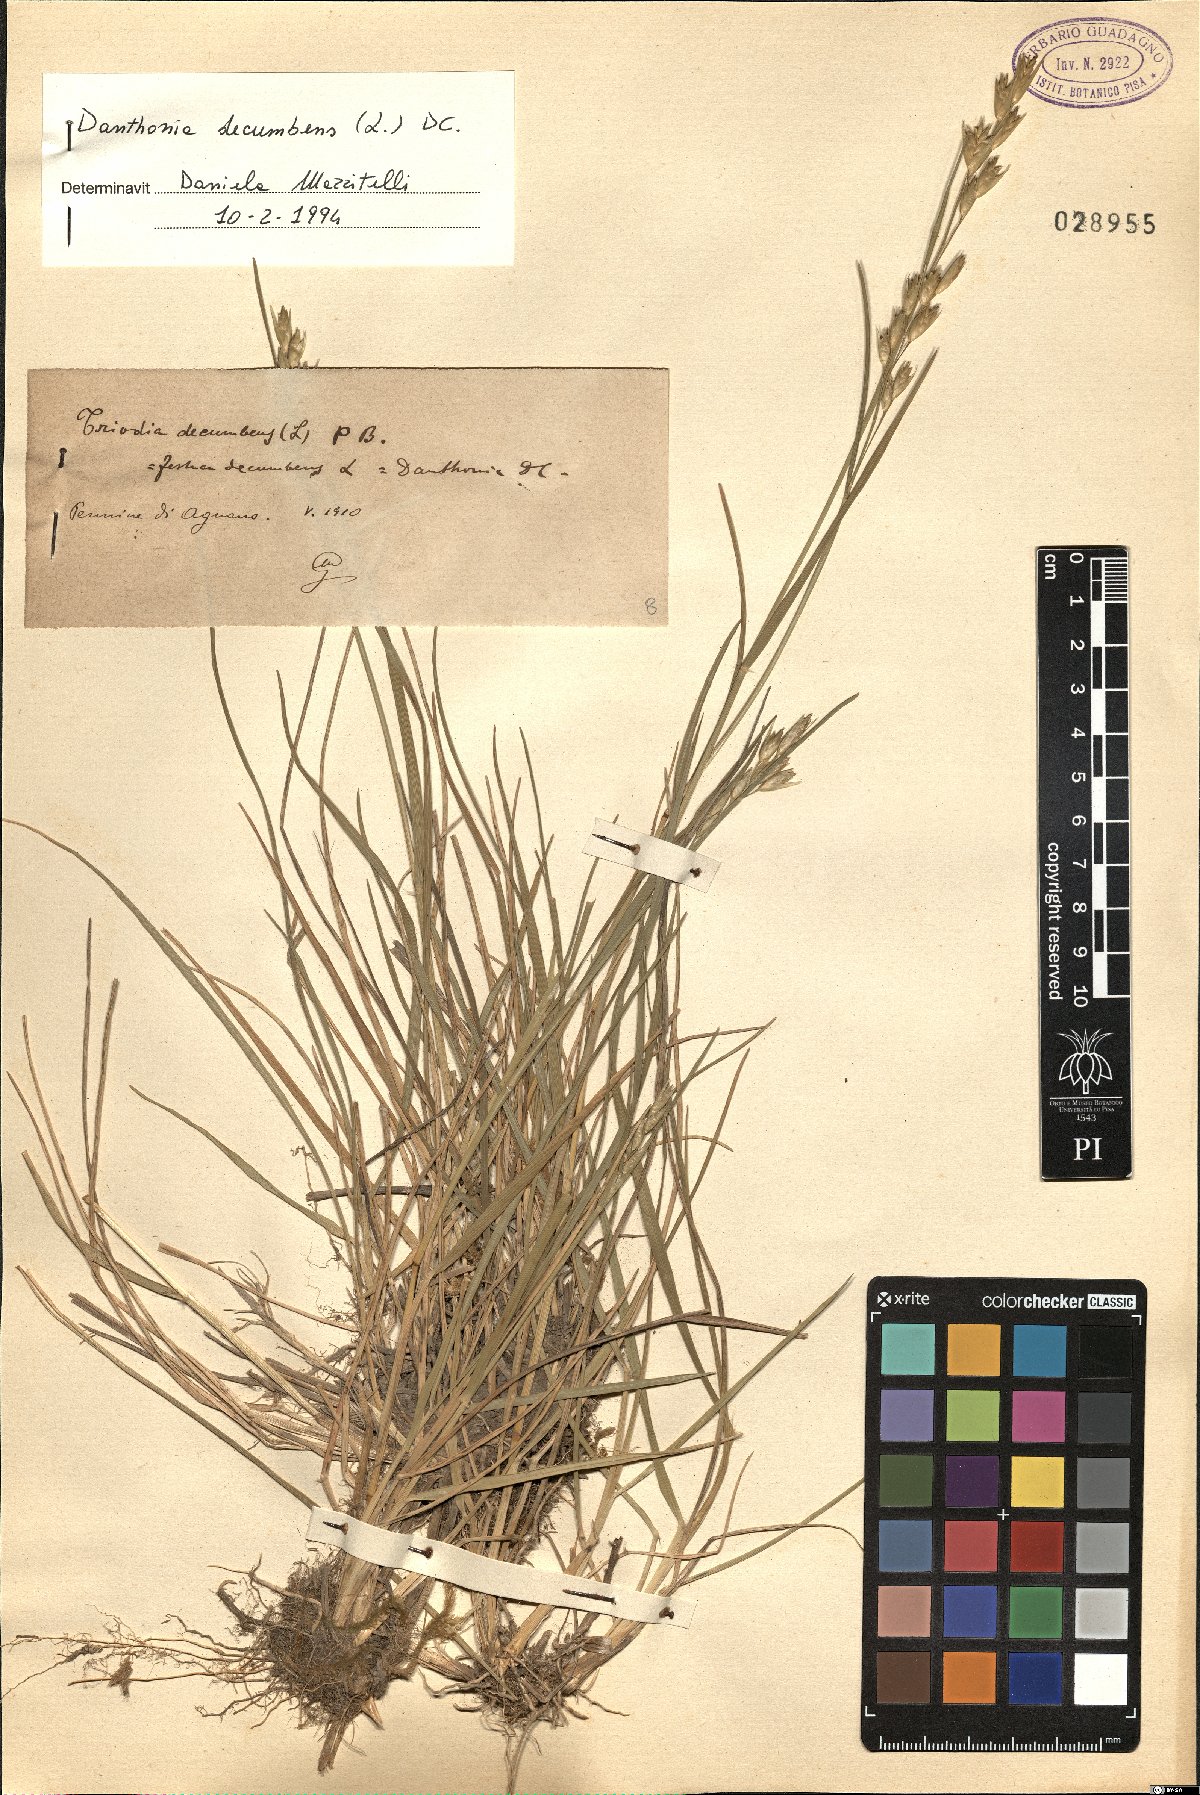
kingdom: Plantae
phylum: Tracheophyta
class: Liliopsida
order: Poales
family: Poaceae
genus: Danthonia
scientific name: Danthonia decumbens
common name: Common heathgrass
